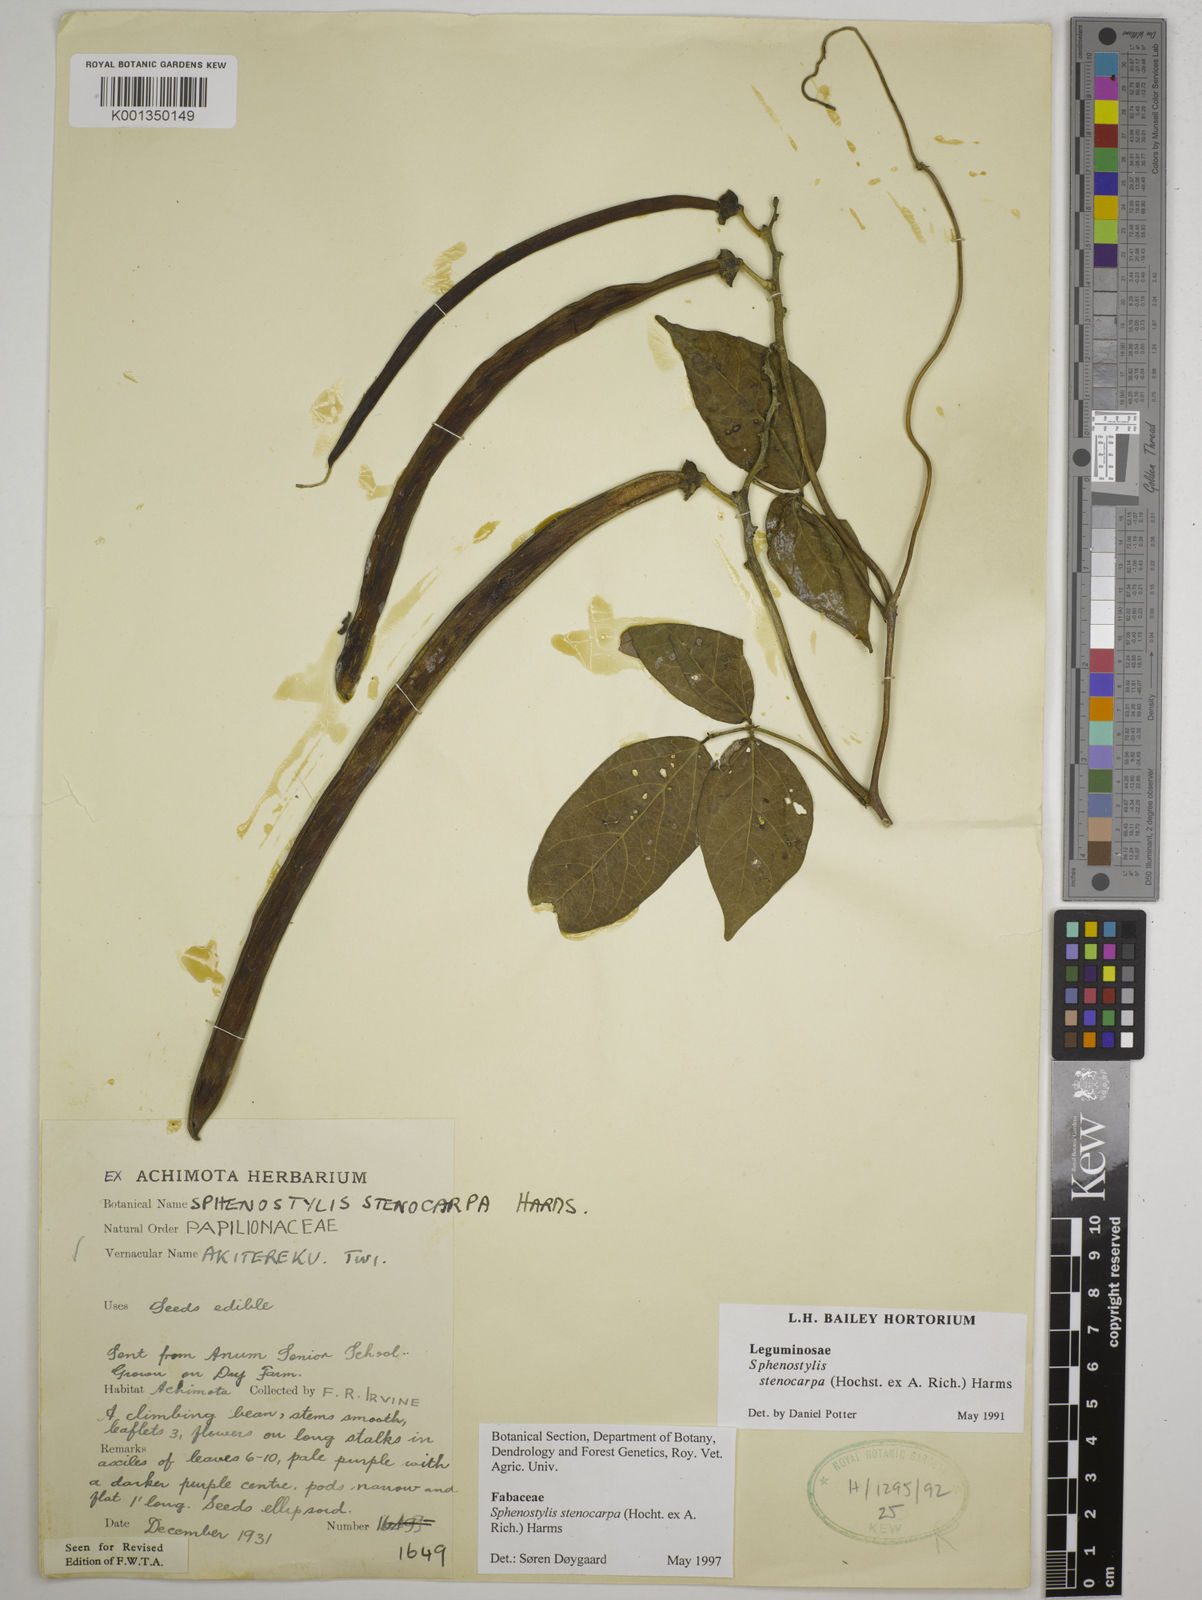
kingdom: Plantae
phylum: Tracheophyta
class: Magnoliopsida
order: Fabales
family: Fabaceae
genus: Sphenostylis
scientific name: Sphenostylis stenocarpa
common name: Yam-pea
